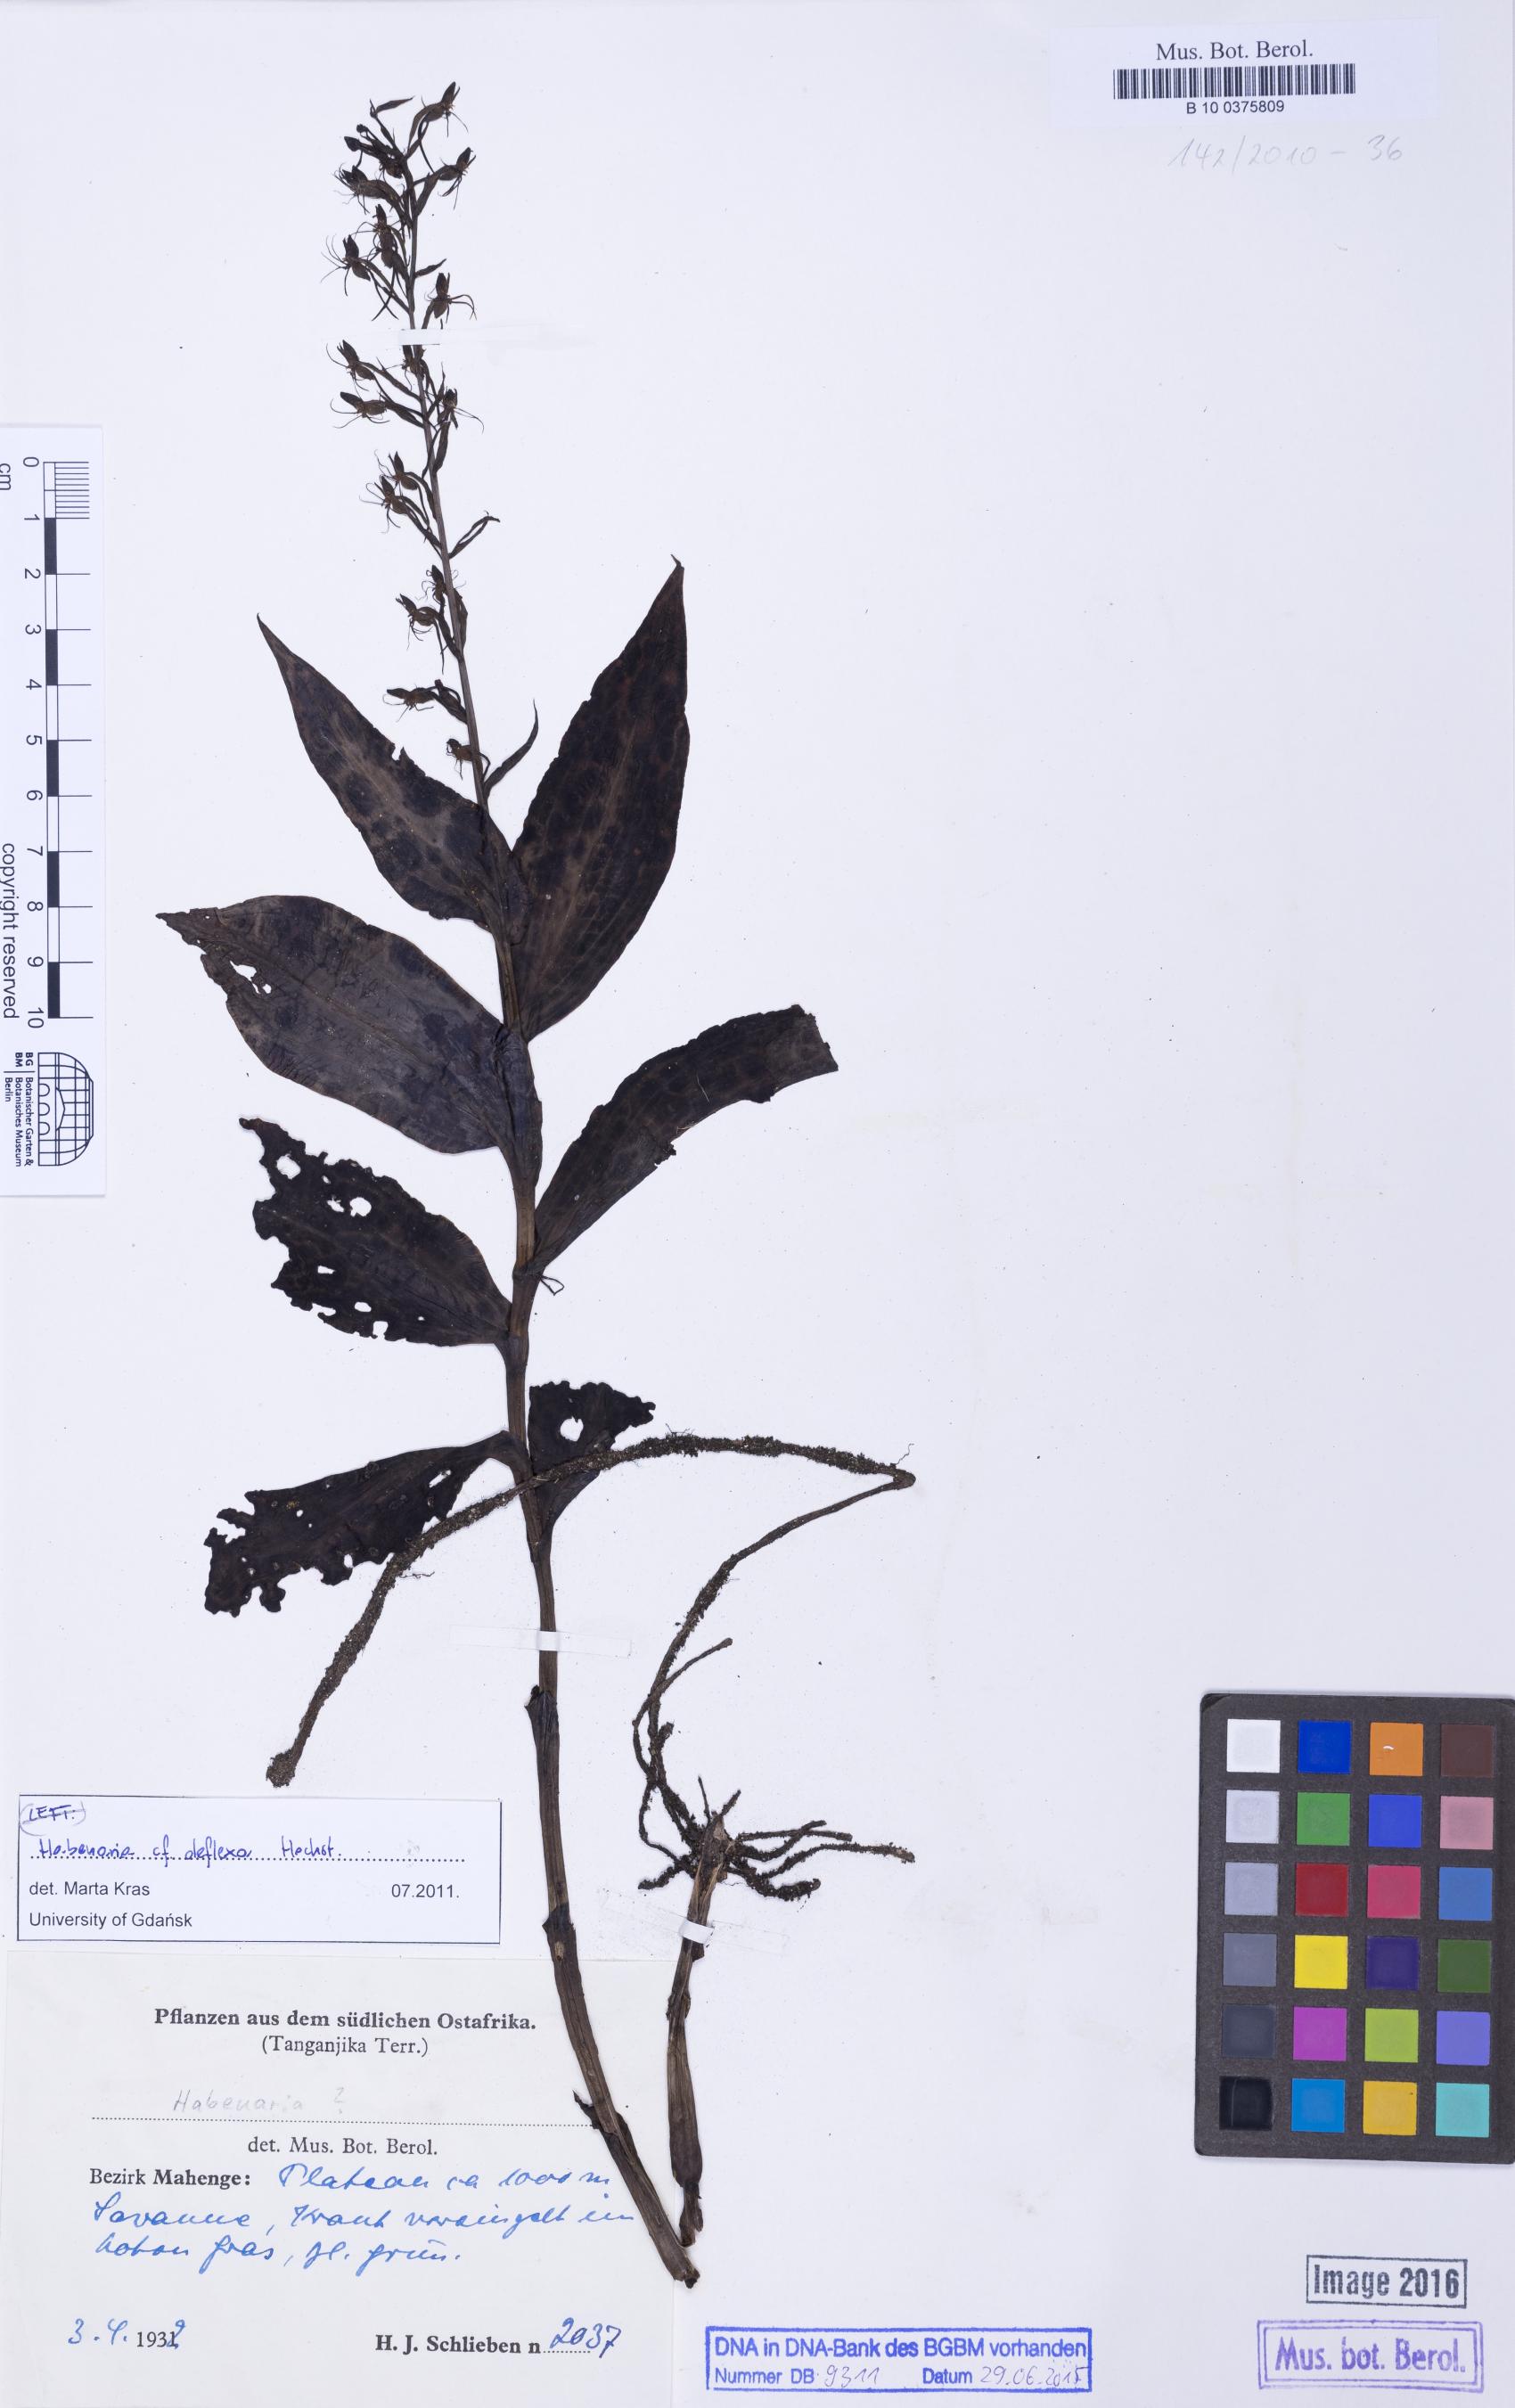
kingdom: Plantae
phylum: Tracheophyta
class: Liliopsida
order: Asparagales
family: Orchidaceae
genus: Habenaria
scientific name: Habenaria filicornis
